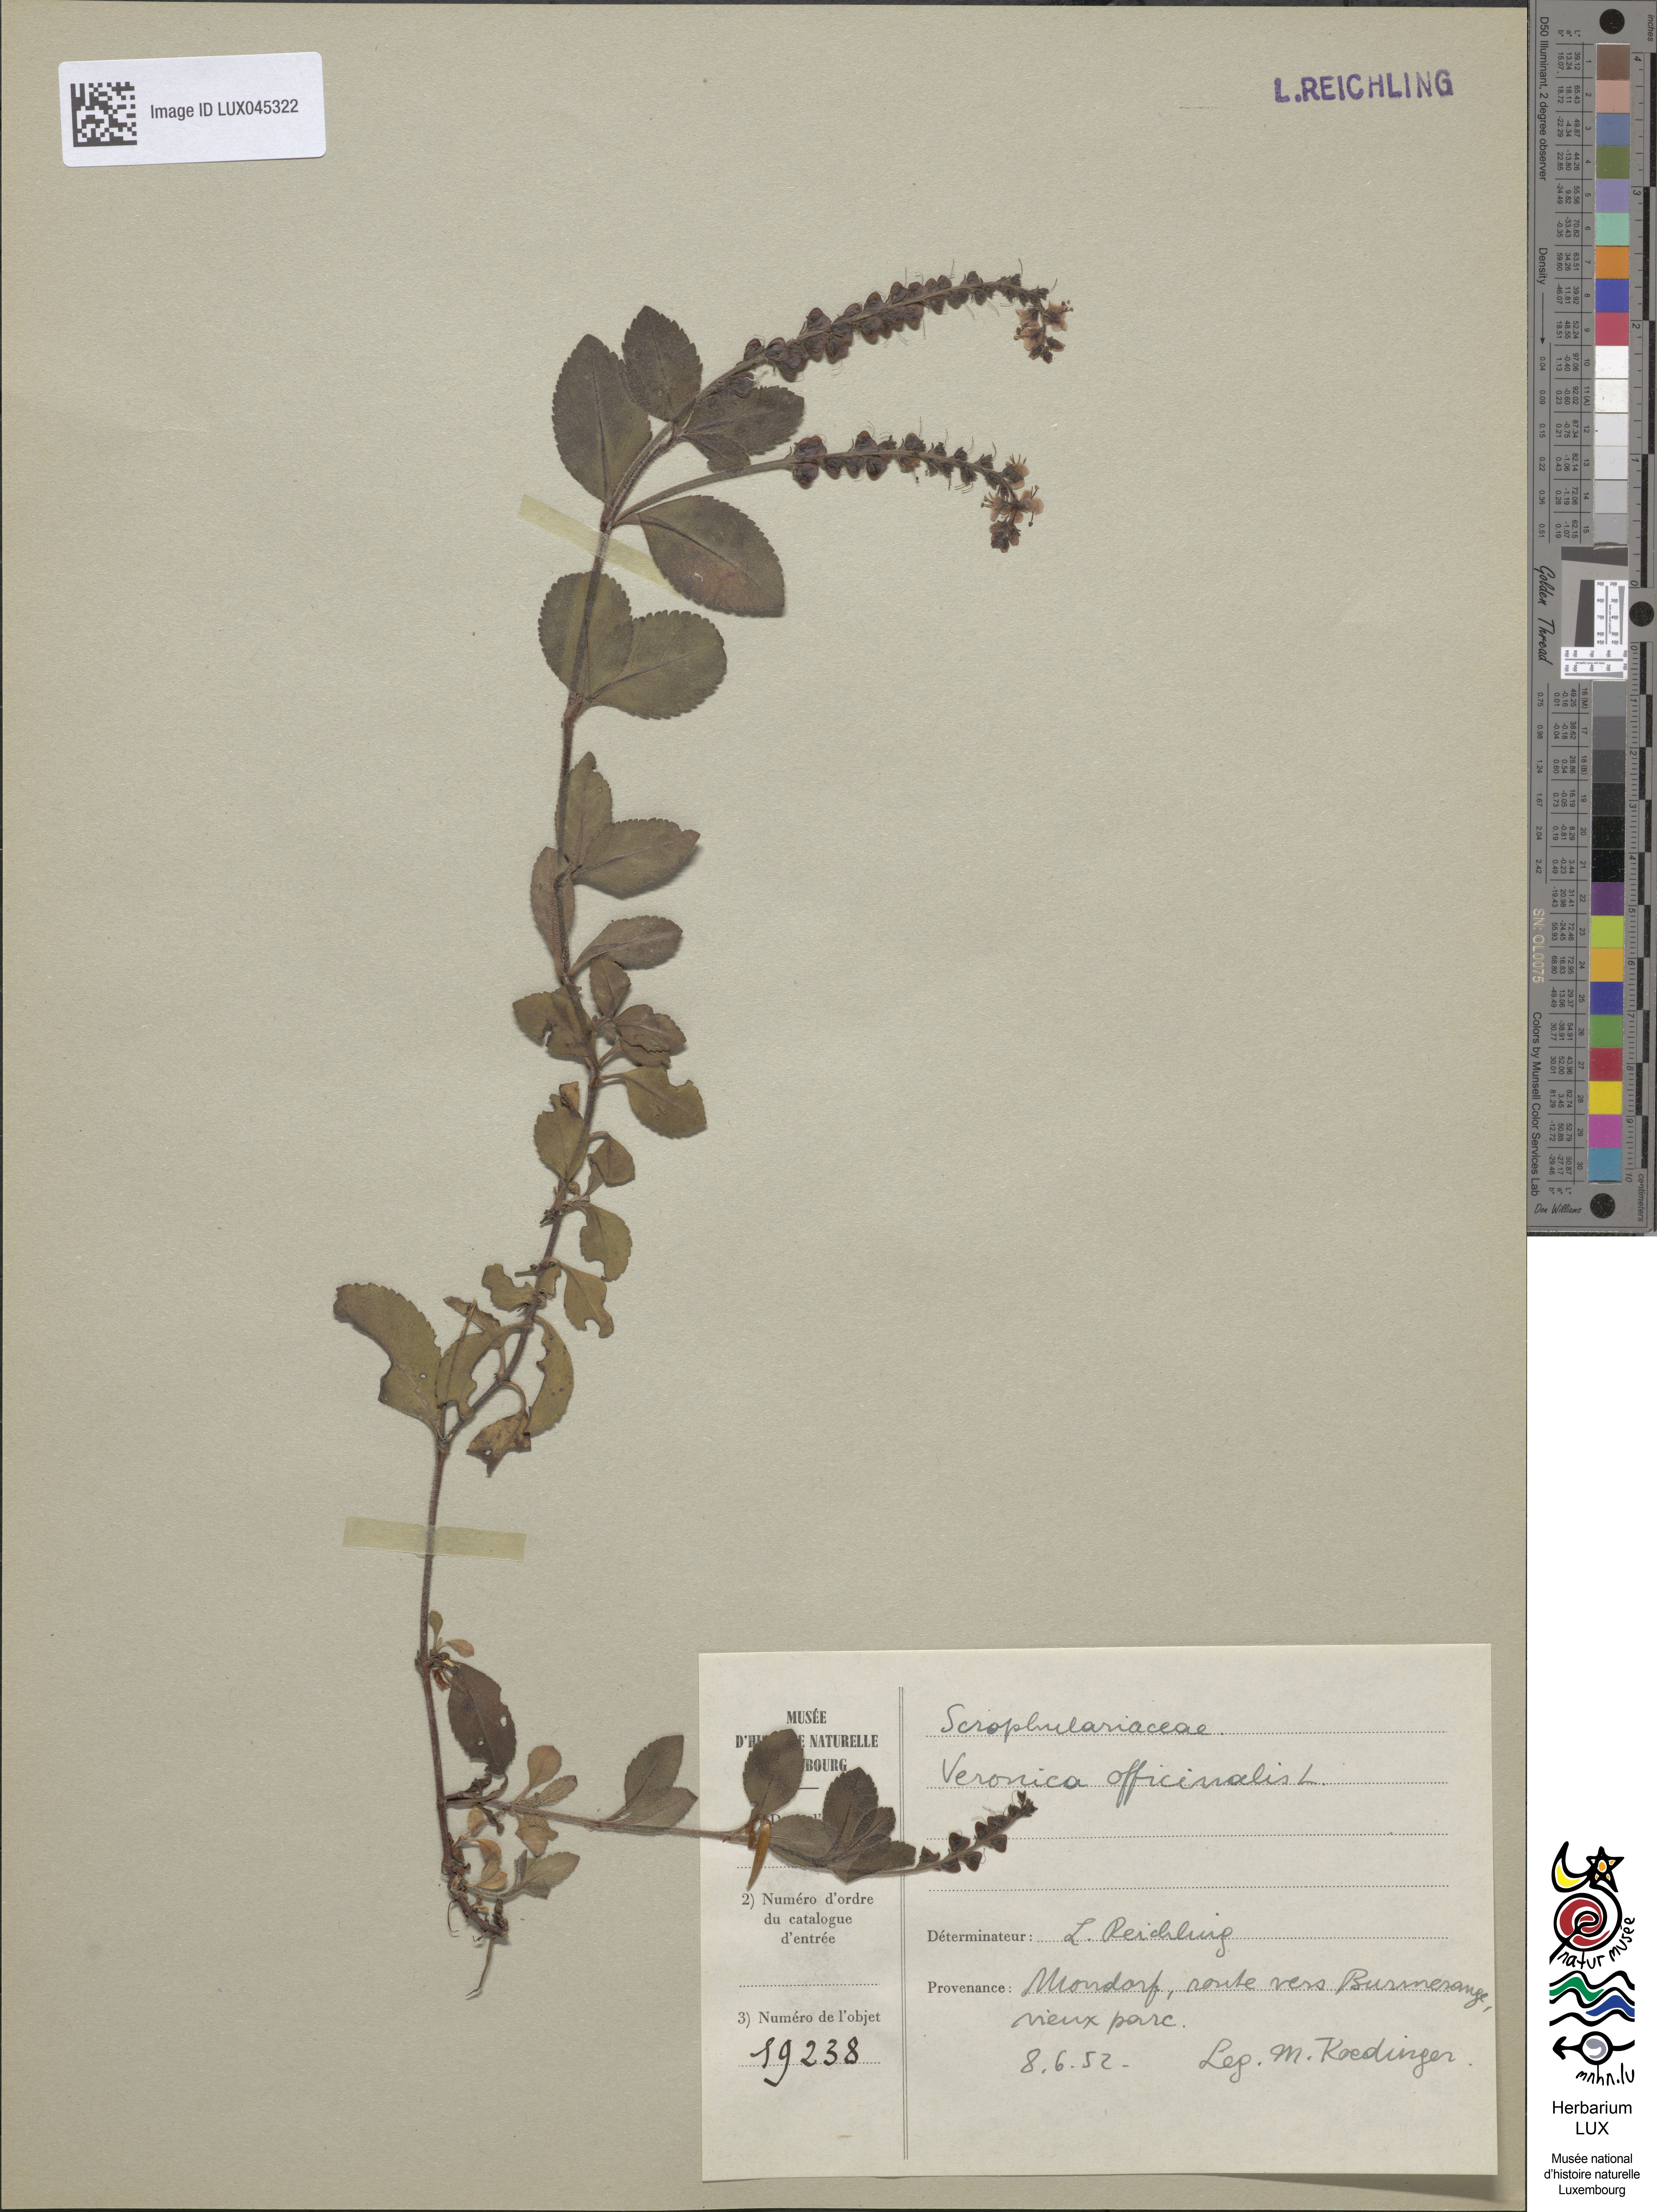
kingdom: Plantae
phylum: Tracheophyta
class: Magnoliopsida
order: Lamiales
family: Plantaginaceae
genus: Veronica
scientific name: Veronica officinalis
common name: Common speedwell
